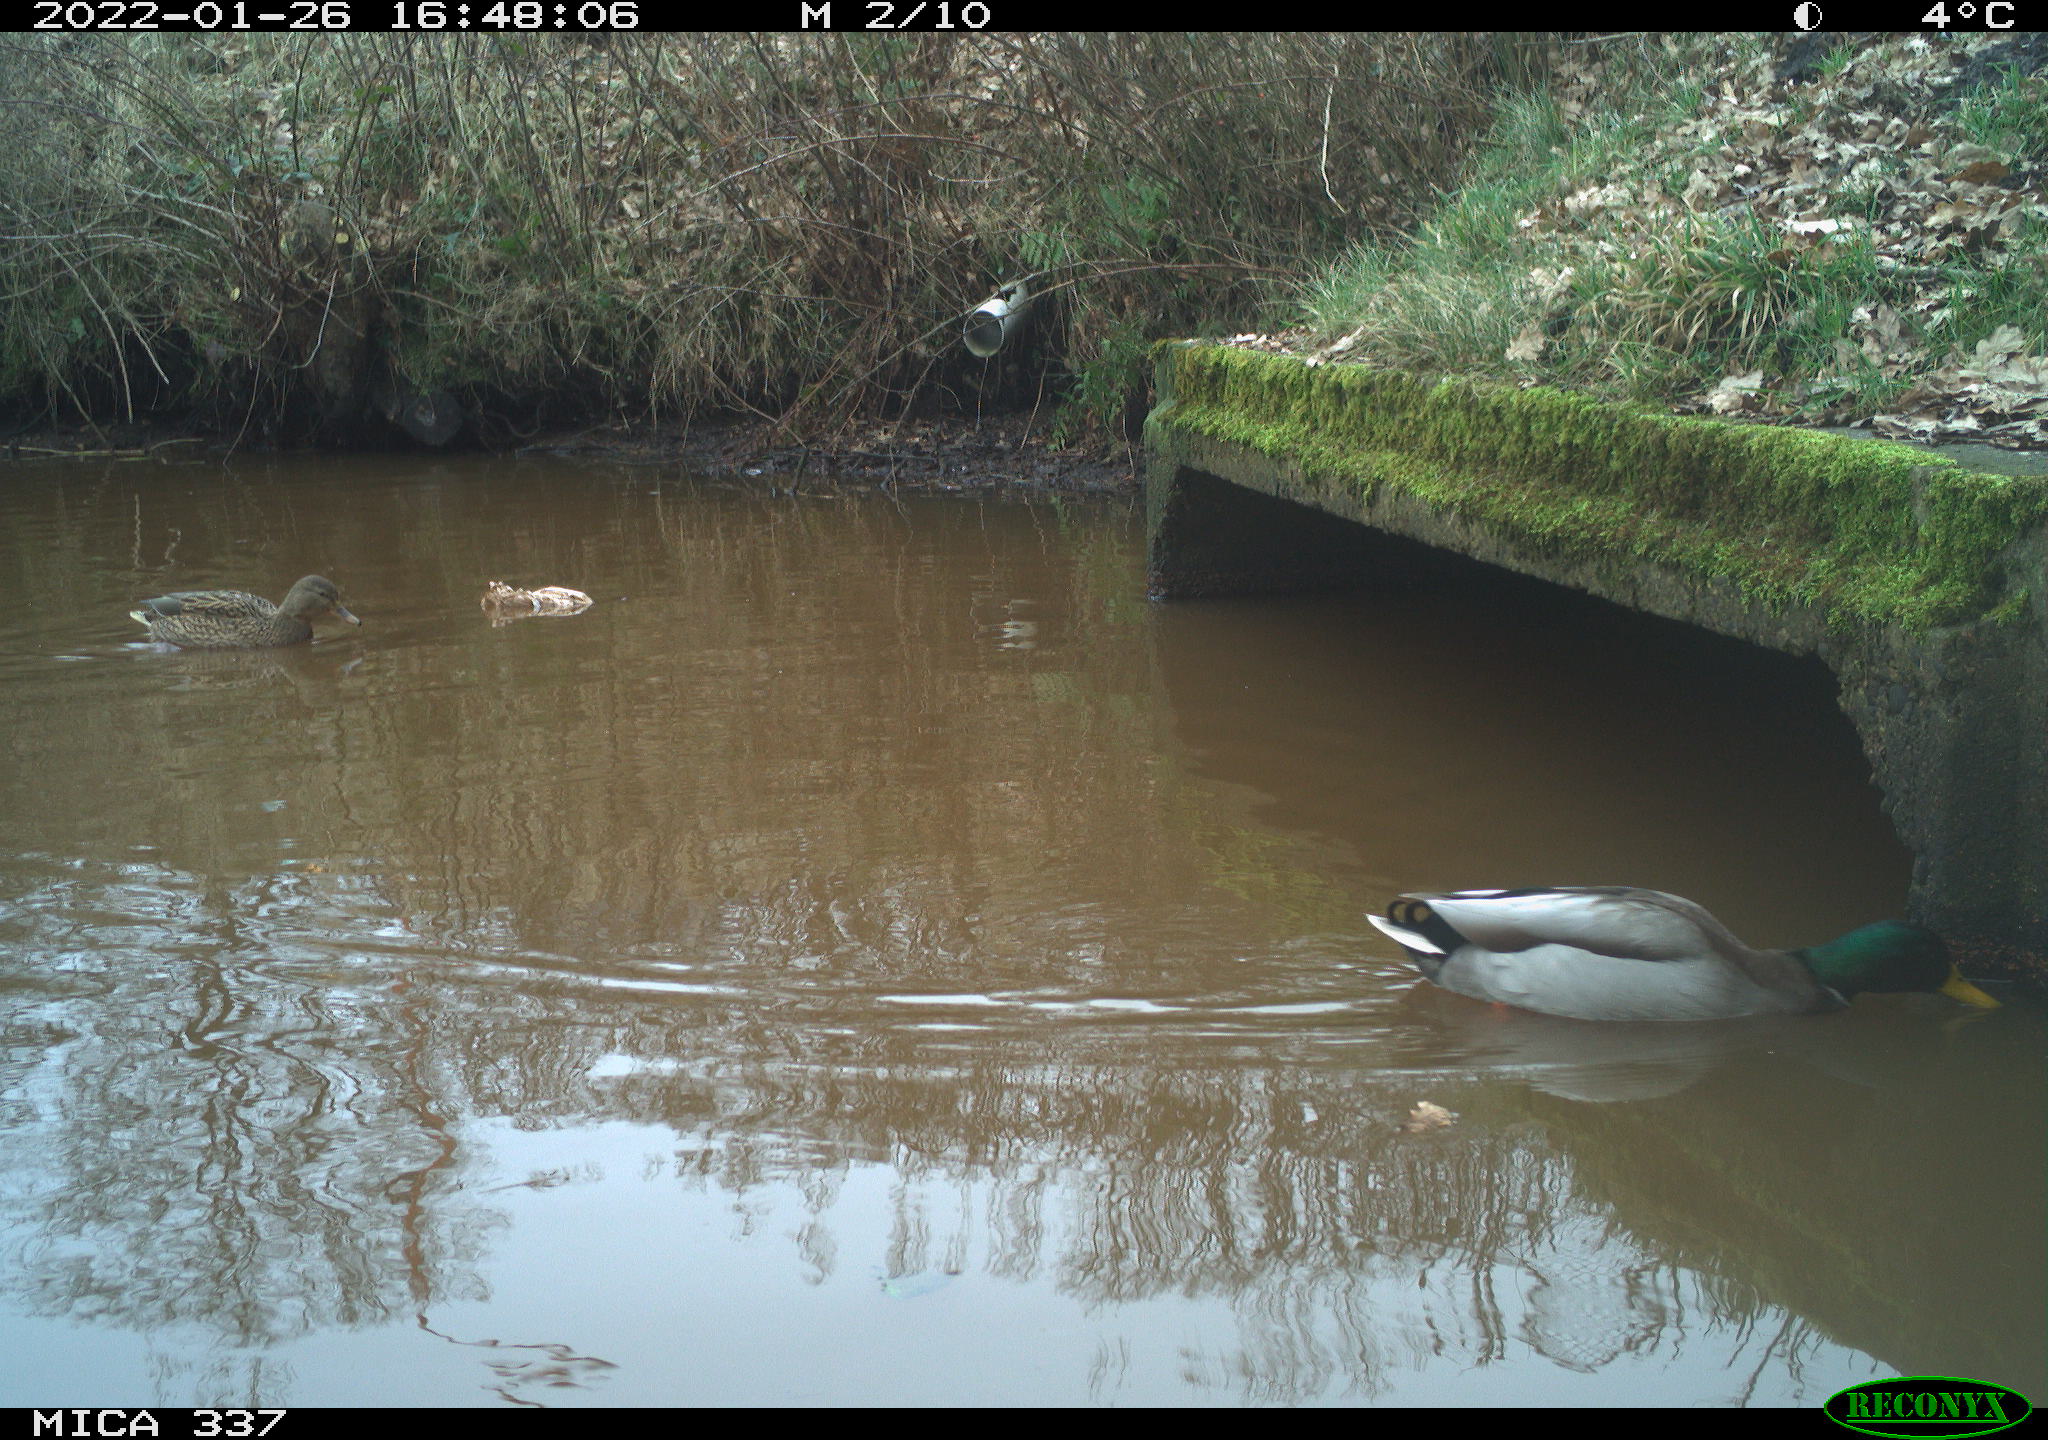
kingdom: Animalia
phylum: Chordata
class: Aves
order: Anseriformes
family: Anatidae
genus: Anas
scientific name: Anas platyrhynchos
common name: Mallard
